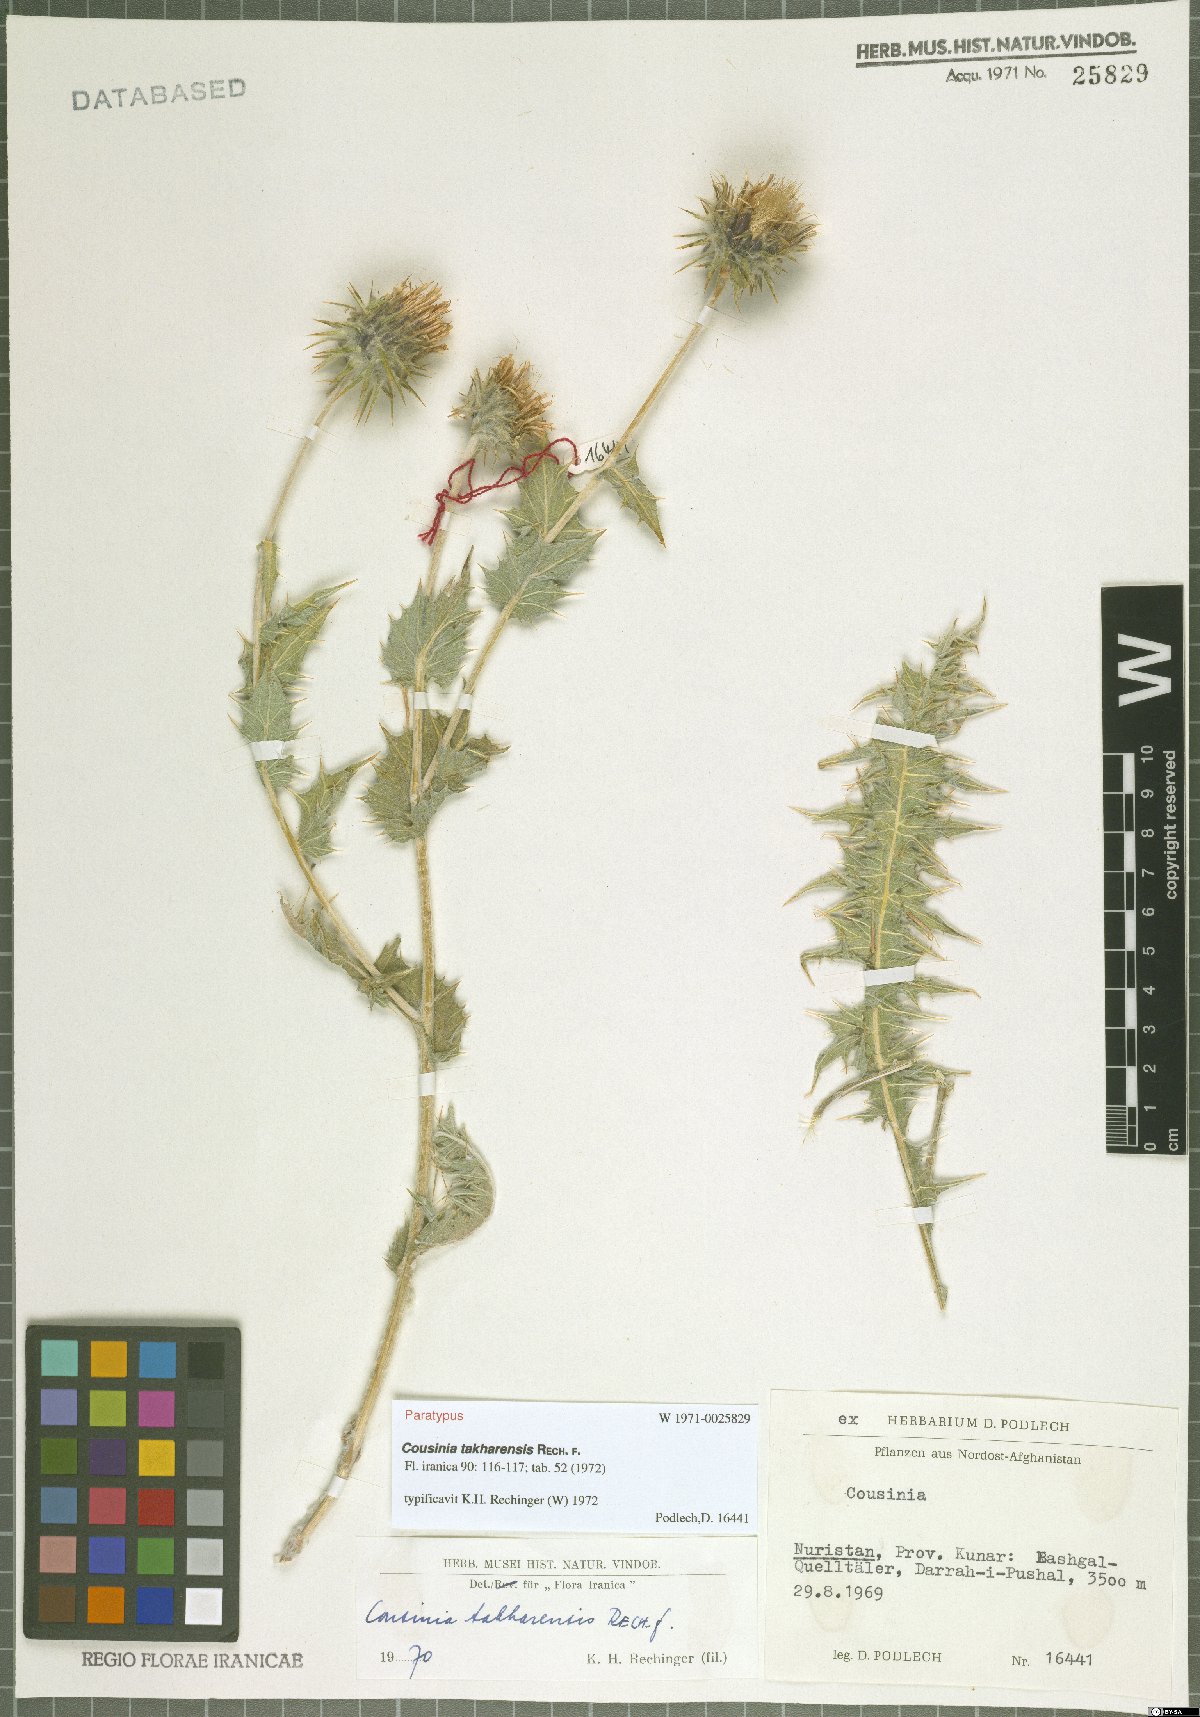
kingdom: Plantae
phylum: Tracheophyta
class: Magnoliopsida
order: Asterales
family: Asteraceae
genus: Cousinia
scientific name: Cousinia takharensis
